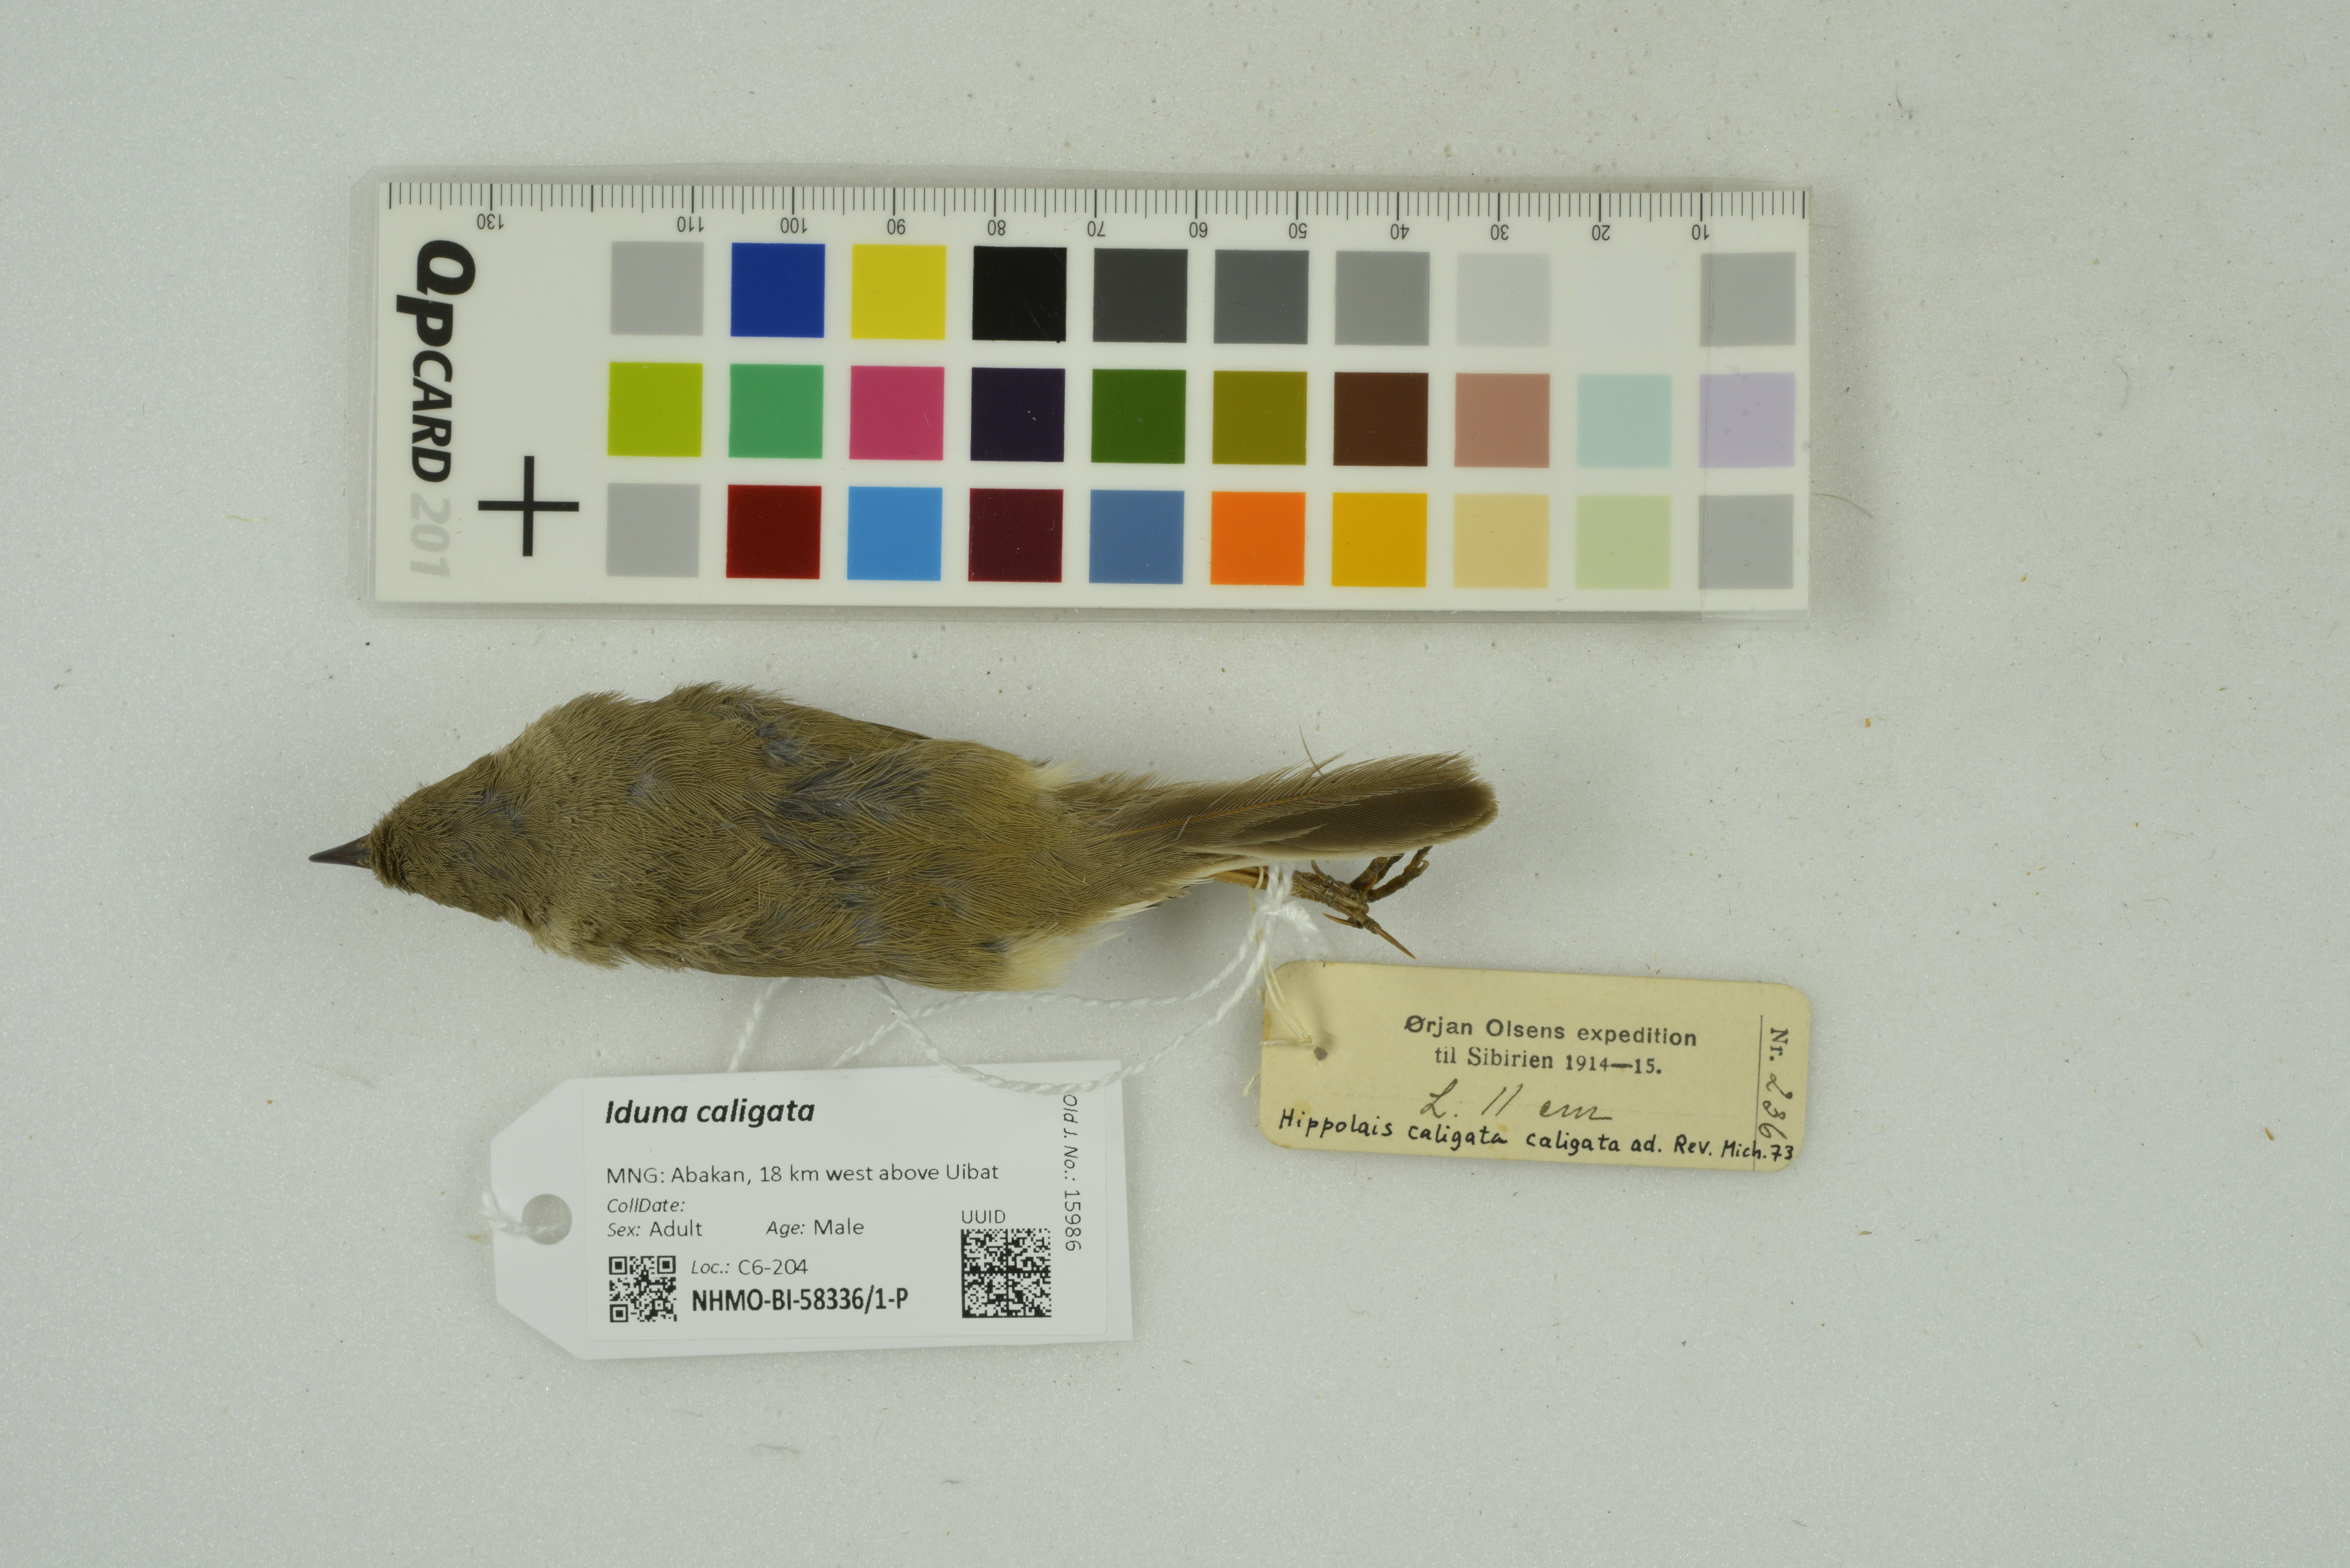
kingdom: Animalia
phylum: Chordata
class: Aves
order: Passeriformes
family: Acrocephalidae
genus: Iduna
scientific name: Iduna caligata
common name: Booted warbler
